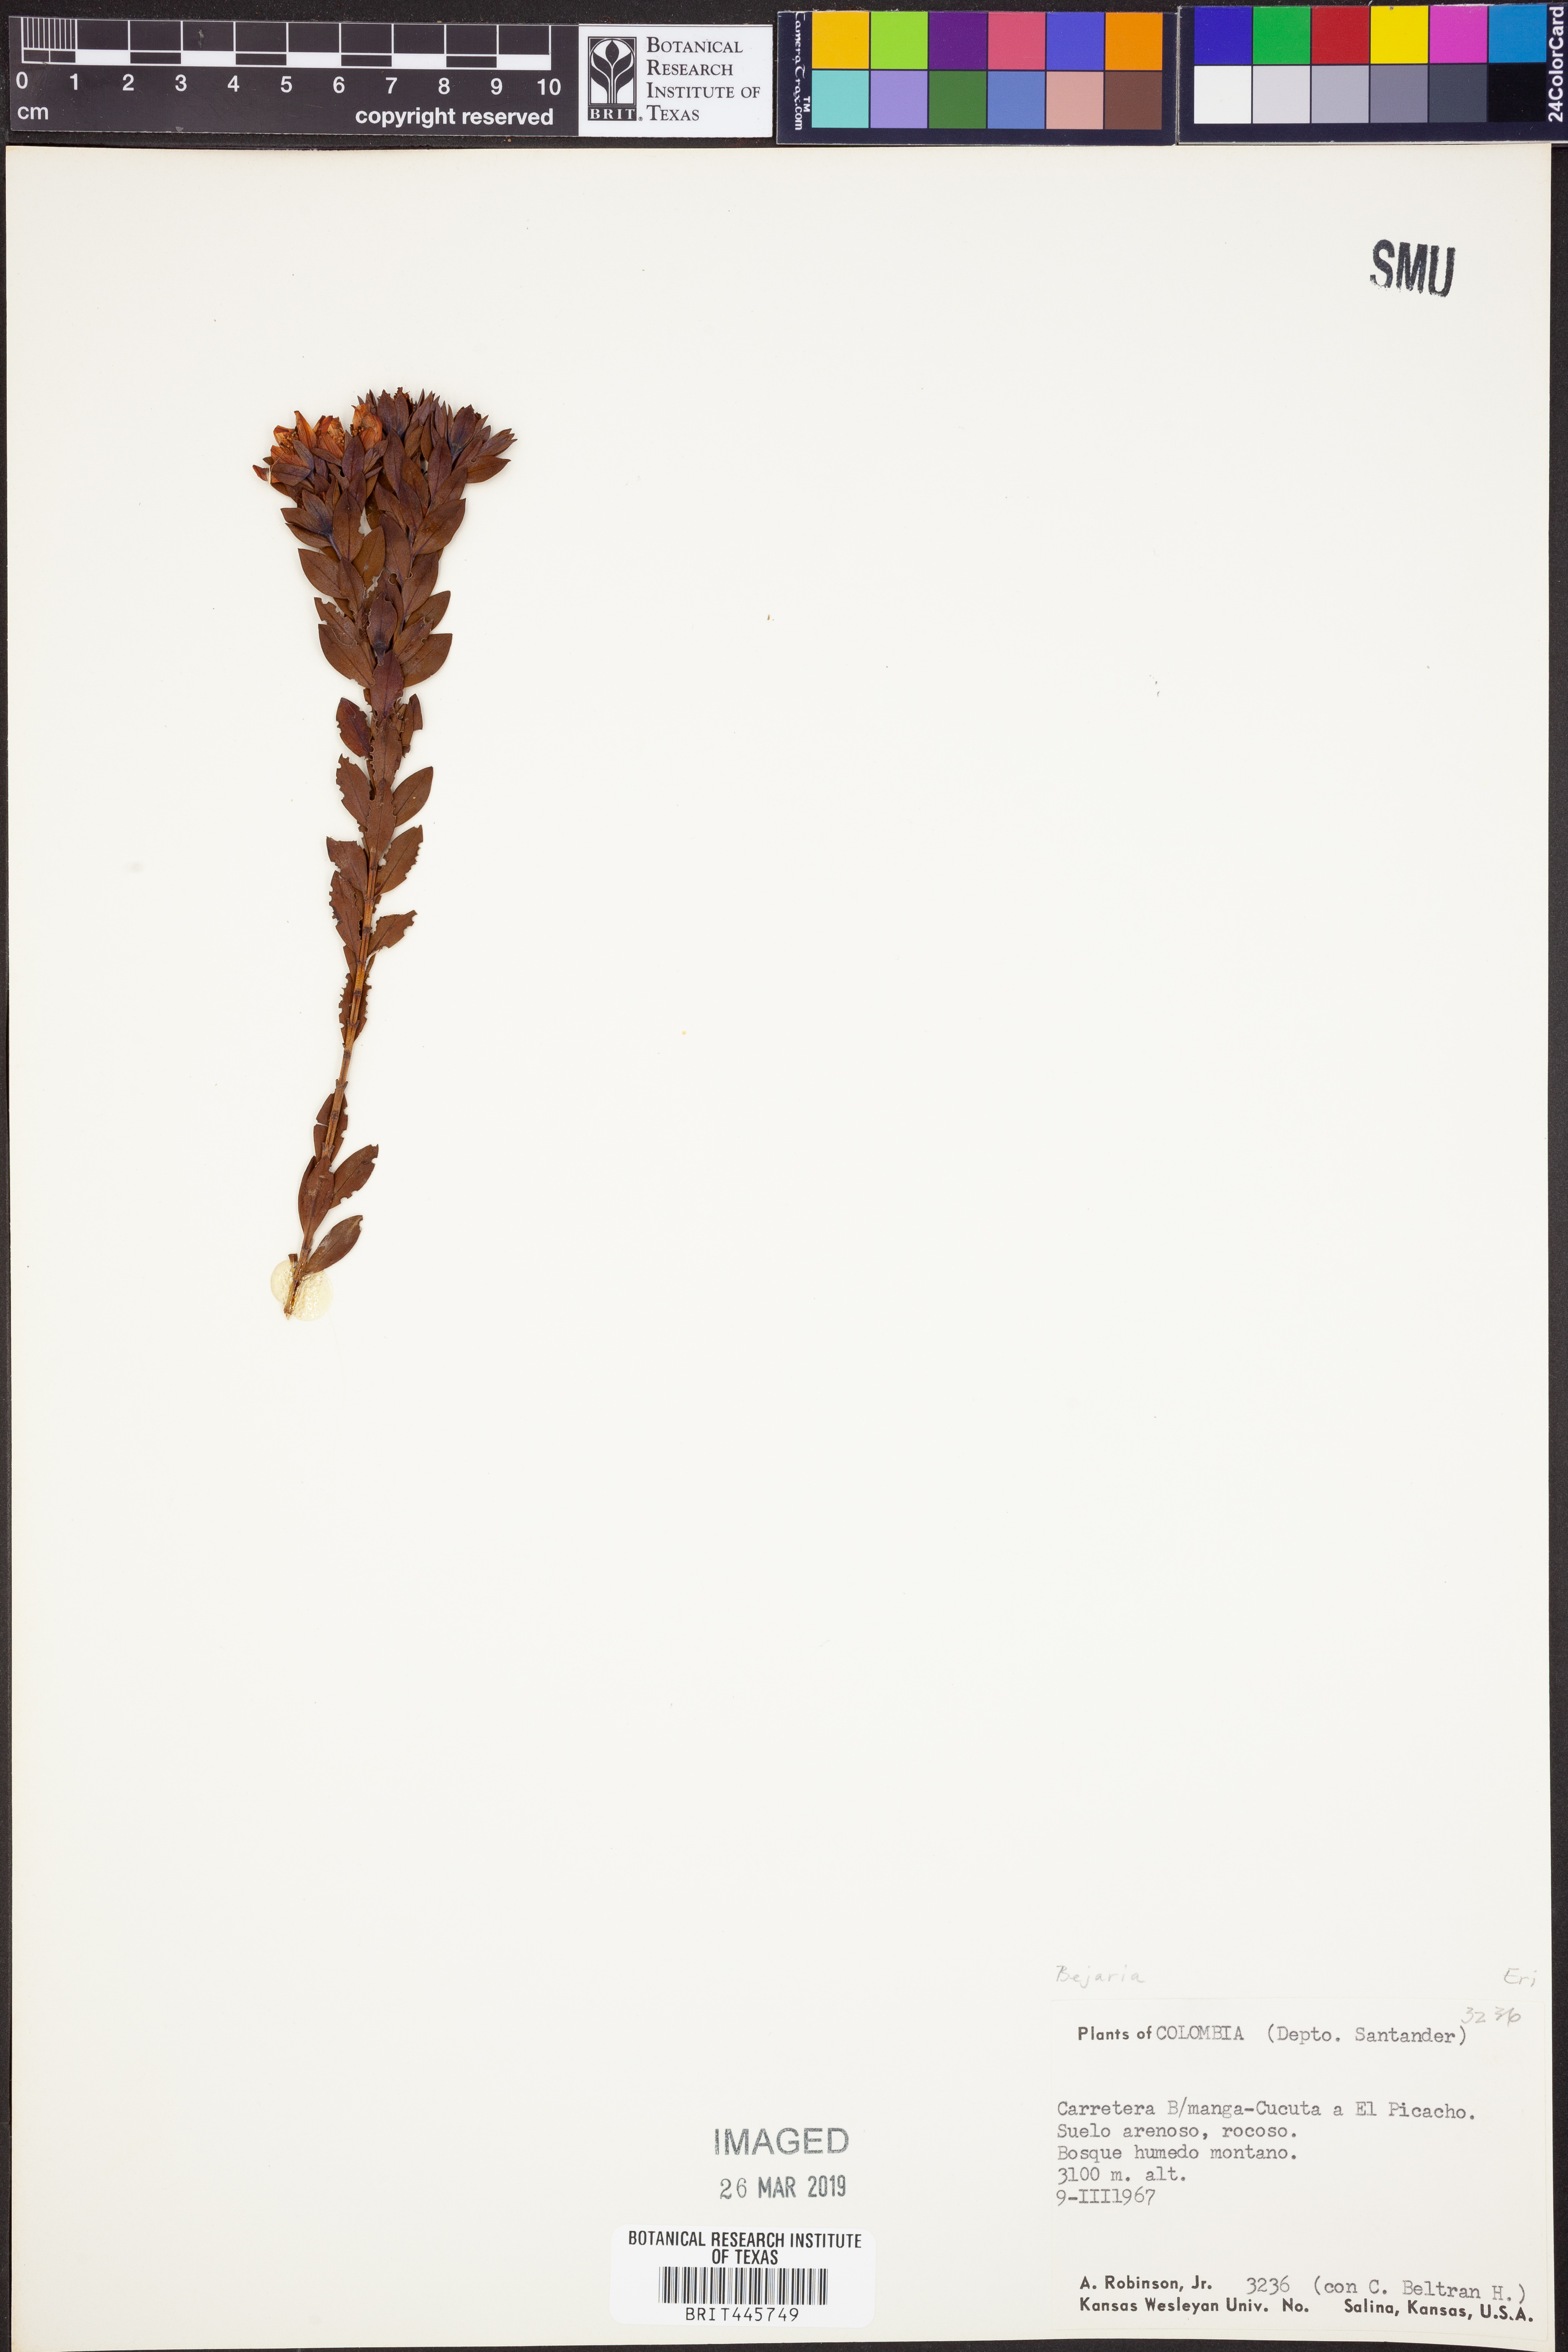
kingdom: Plantae
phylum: Tracheophyta
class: Magnoliopsida
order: Ericales
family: Ericaceae
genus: Bejaria
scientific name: Bejaria
